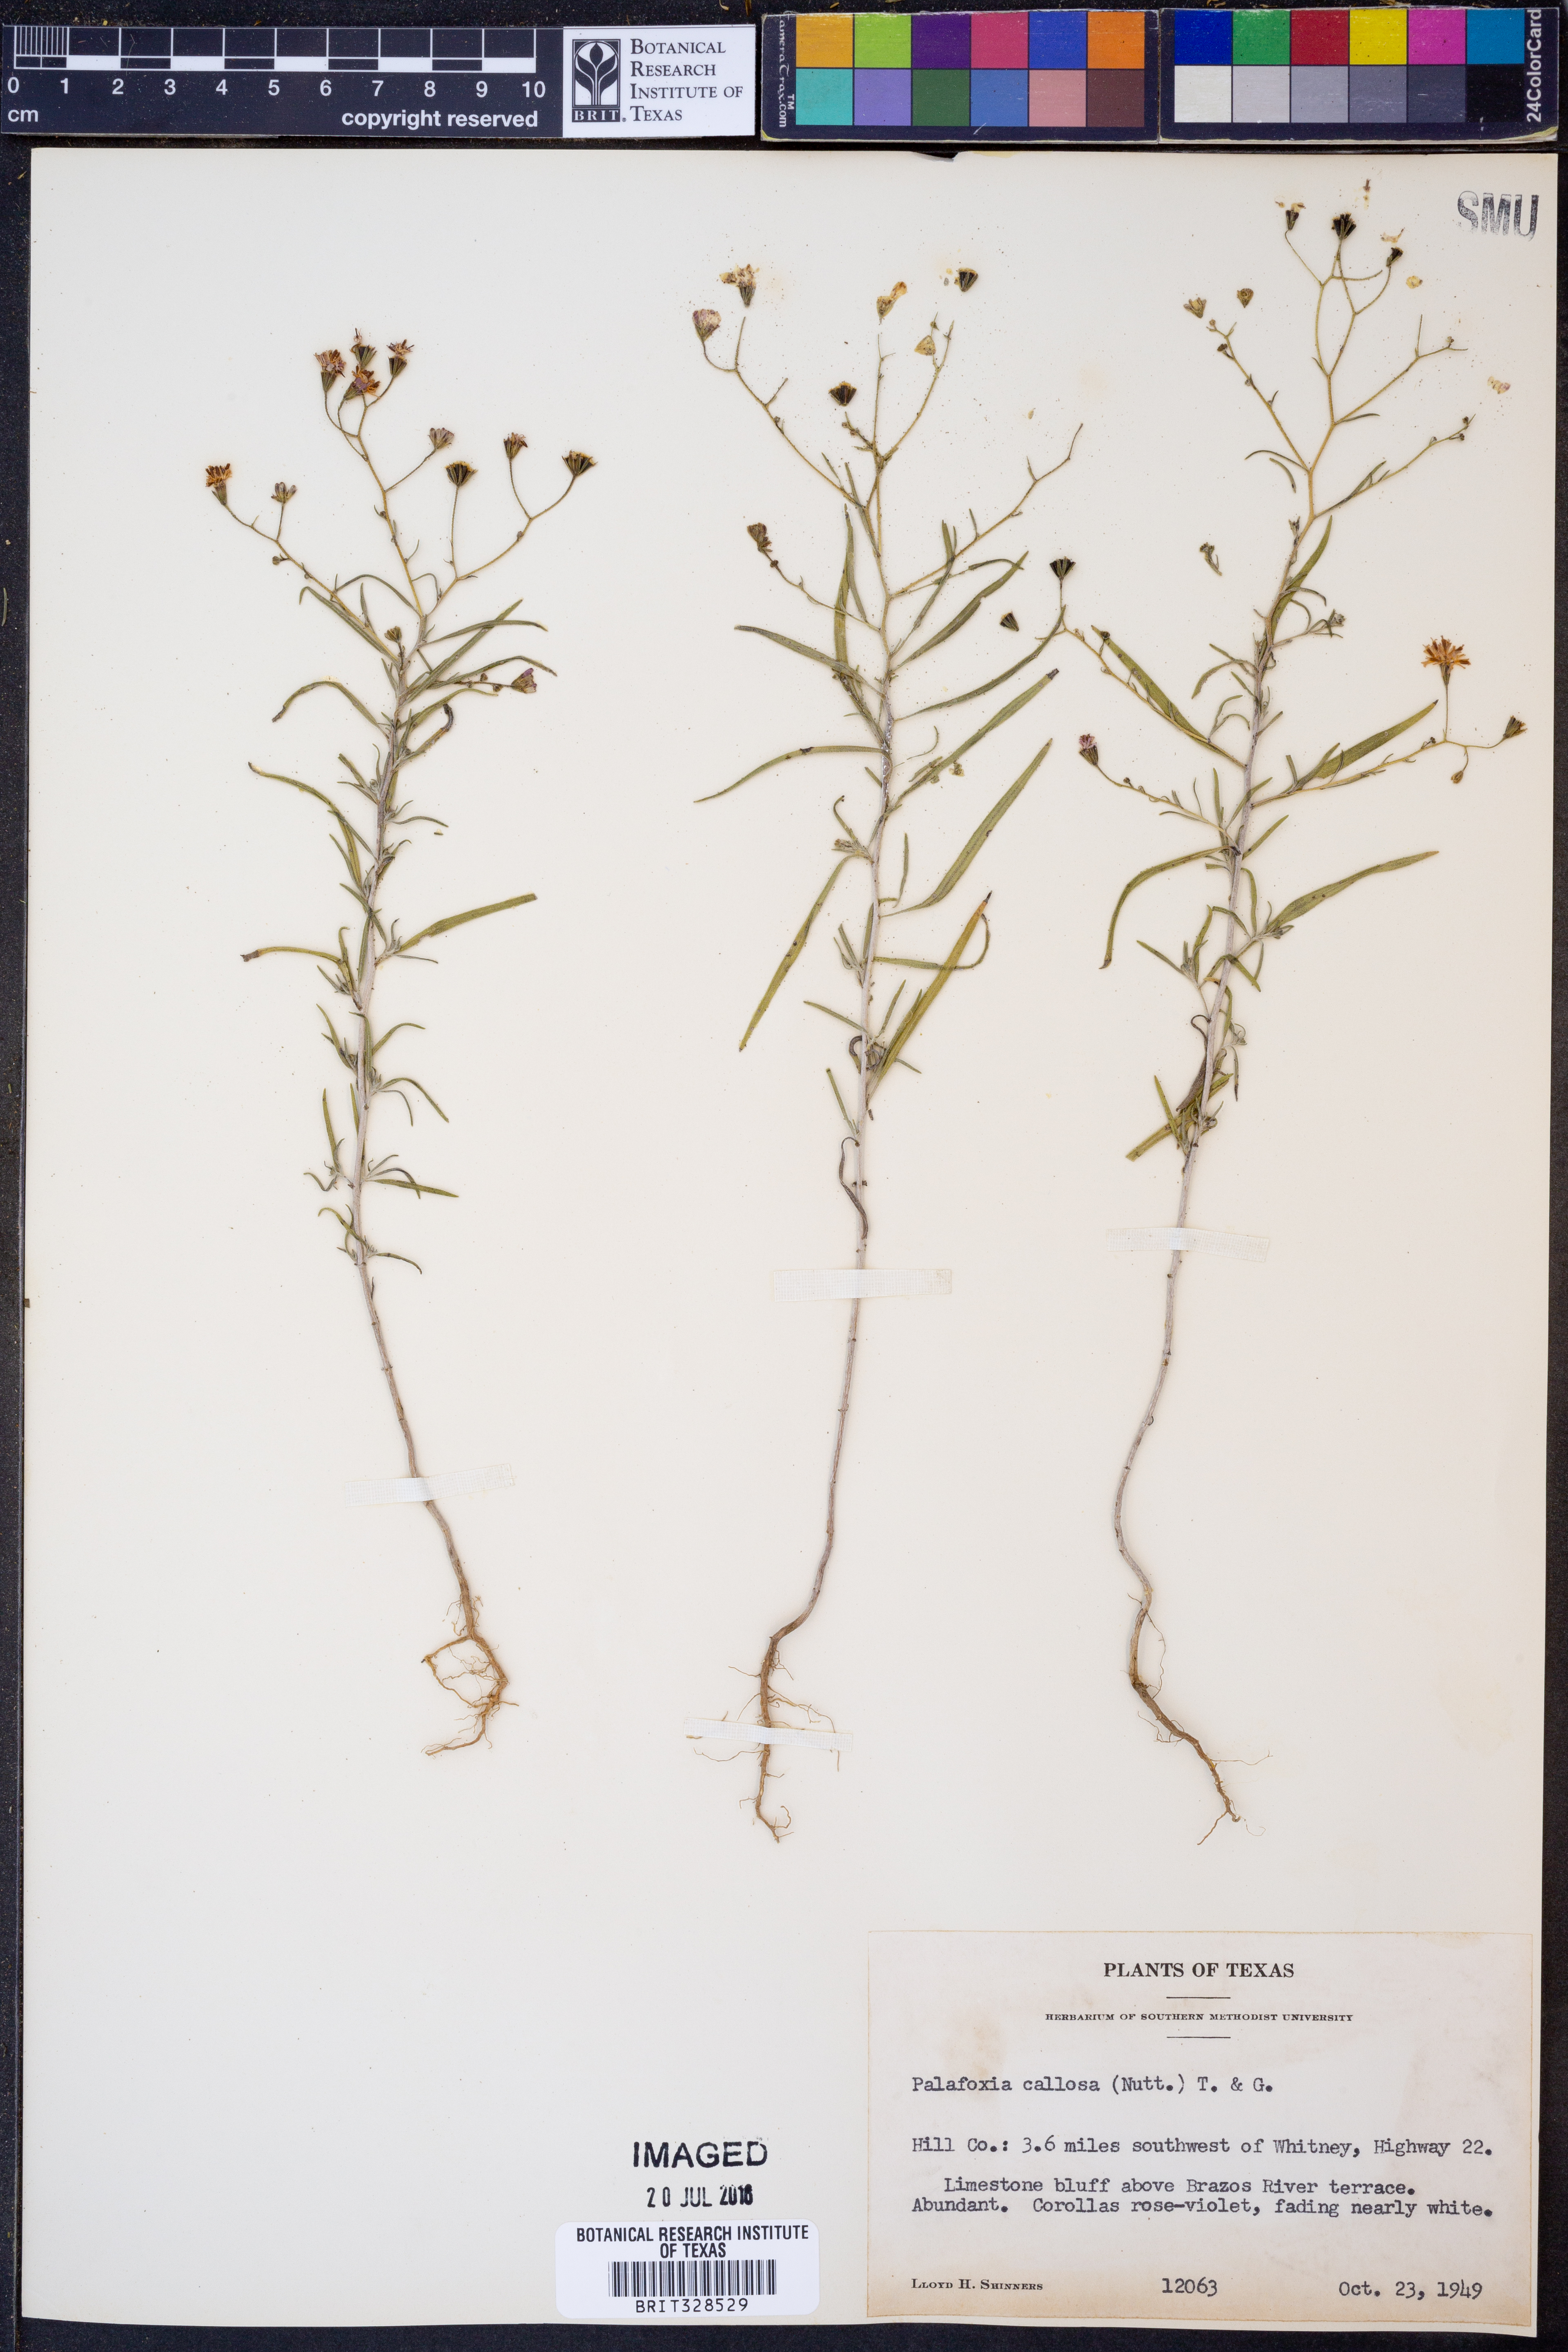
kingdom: Plantae
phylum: Tracheophyta
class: Magnoliopsida
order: Asterales
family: Asteraceae
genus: Palafoxia
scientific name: Palafoxia callosa
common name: Small palafox
